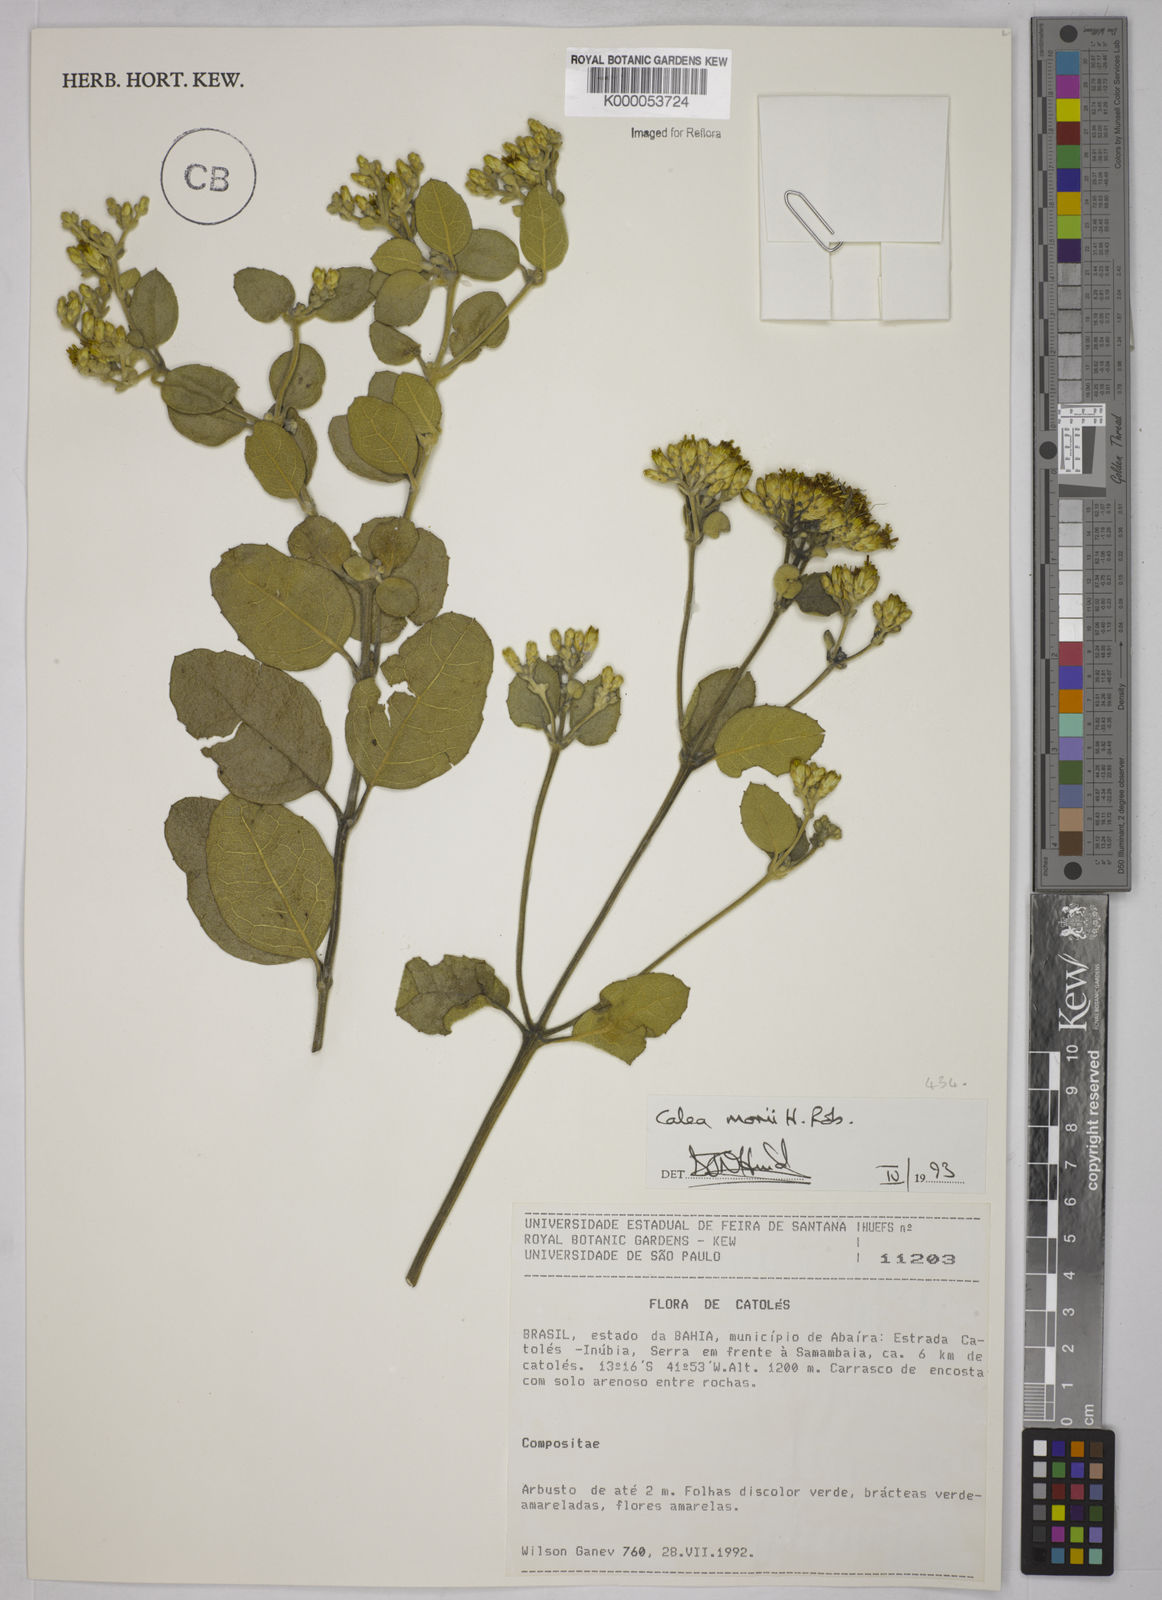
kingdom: Plantae
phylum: Tracheophyta
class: Magnoliopsida
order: Asterales
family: Asteraceae
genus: Calea
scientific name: Calea morii
